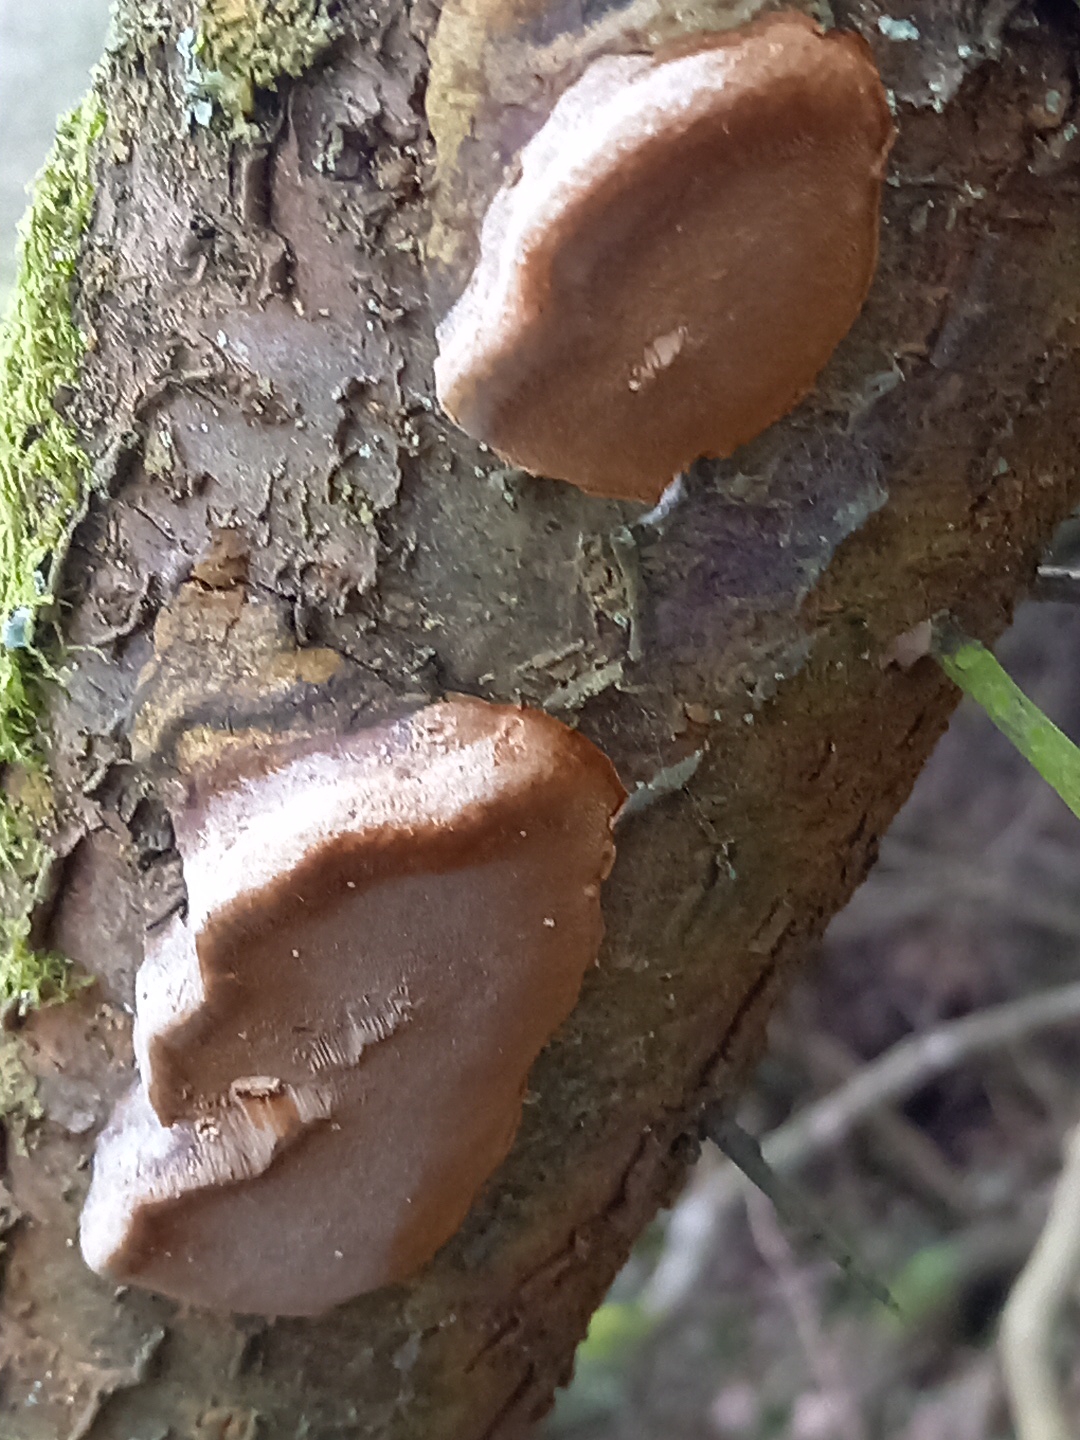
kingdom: Fungi
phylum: Basidiomycota
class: Agaricomycetes
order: Hymenochaetales
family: Hymenochaetaceae
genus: Phellinus
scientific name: Phellinus pomaceus
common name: blomme-ildporesvamp
